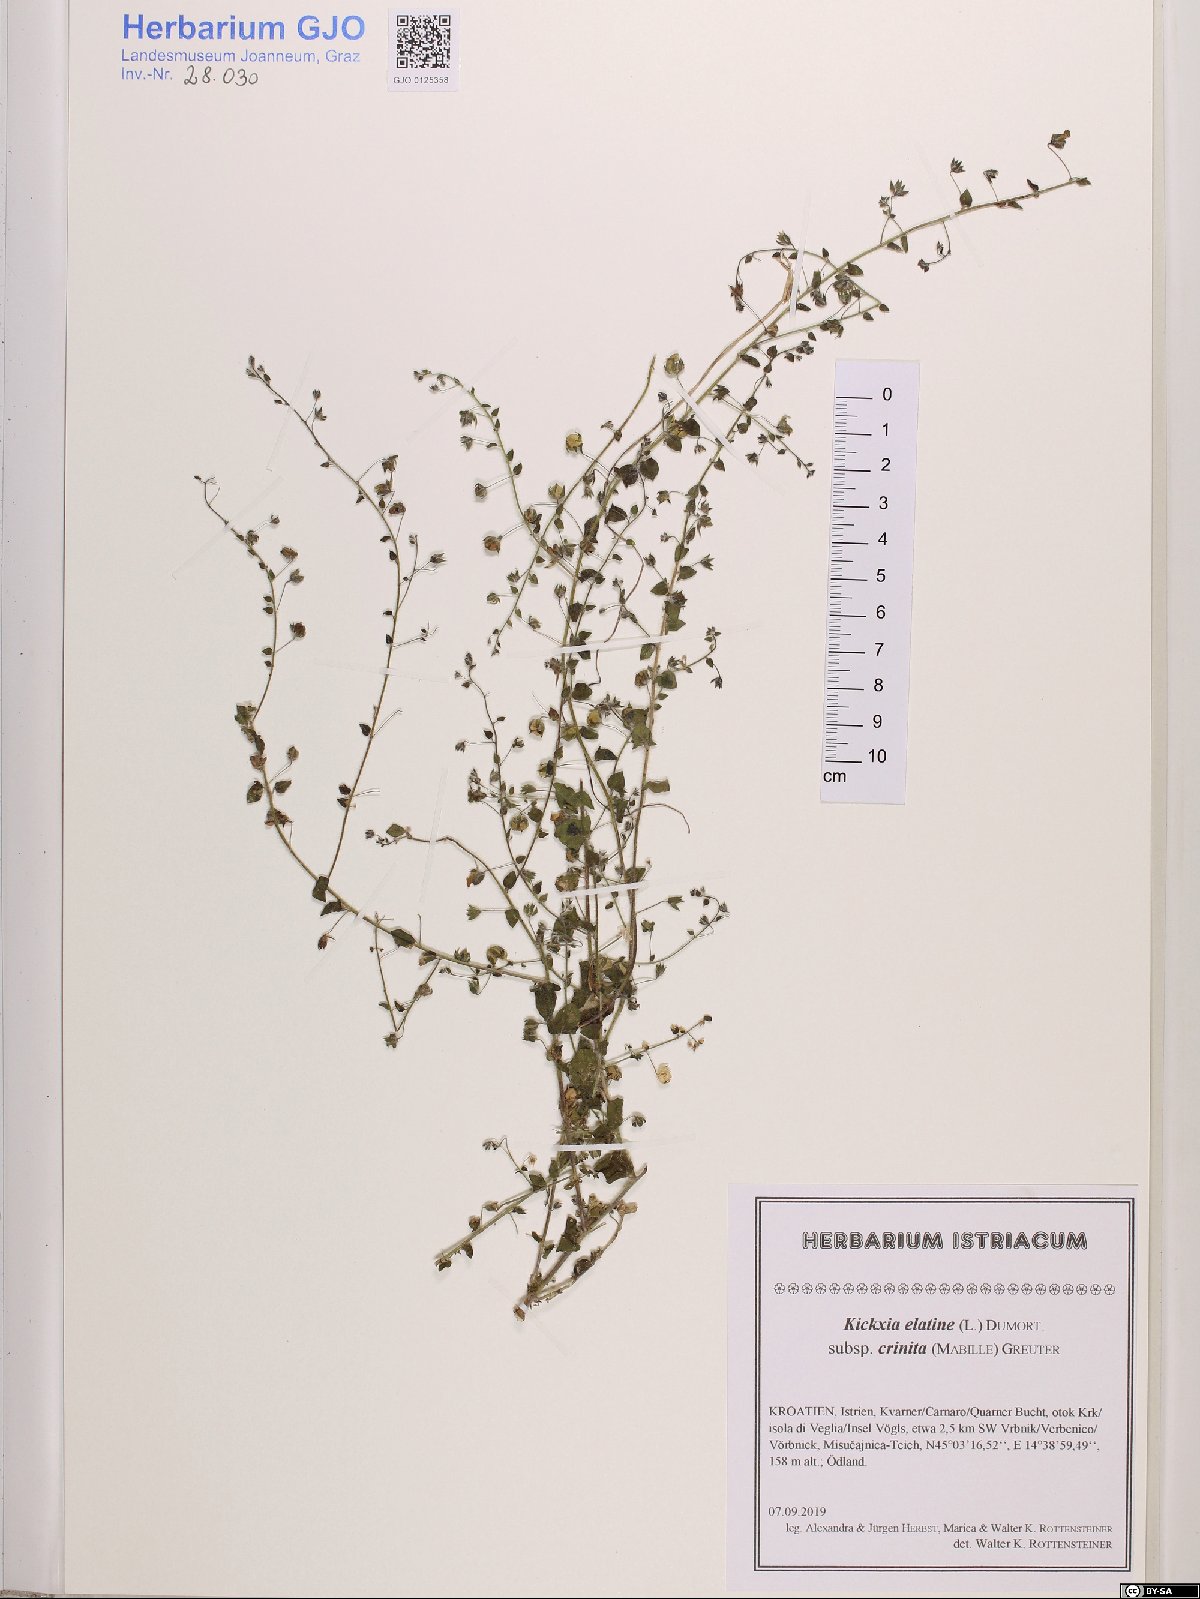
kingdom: Plantae
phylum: Tracheophyta
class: Magnoliopsida
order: Lamiales
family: Plantaginaceae
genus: Kickxia
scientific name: Kickxia elatine
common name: Sharp-leaved fluellen
